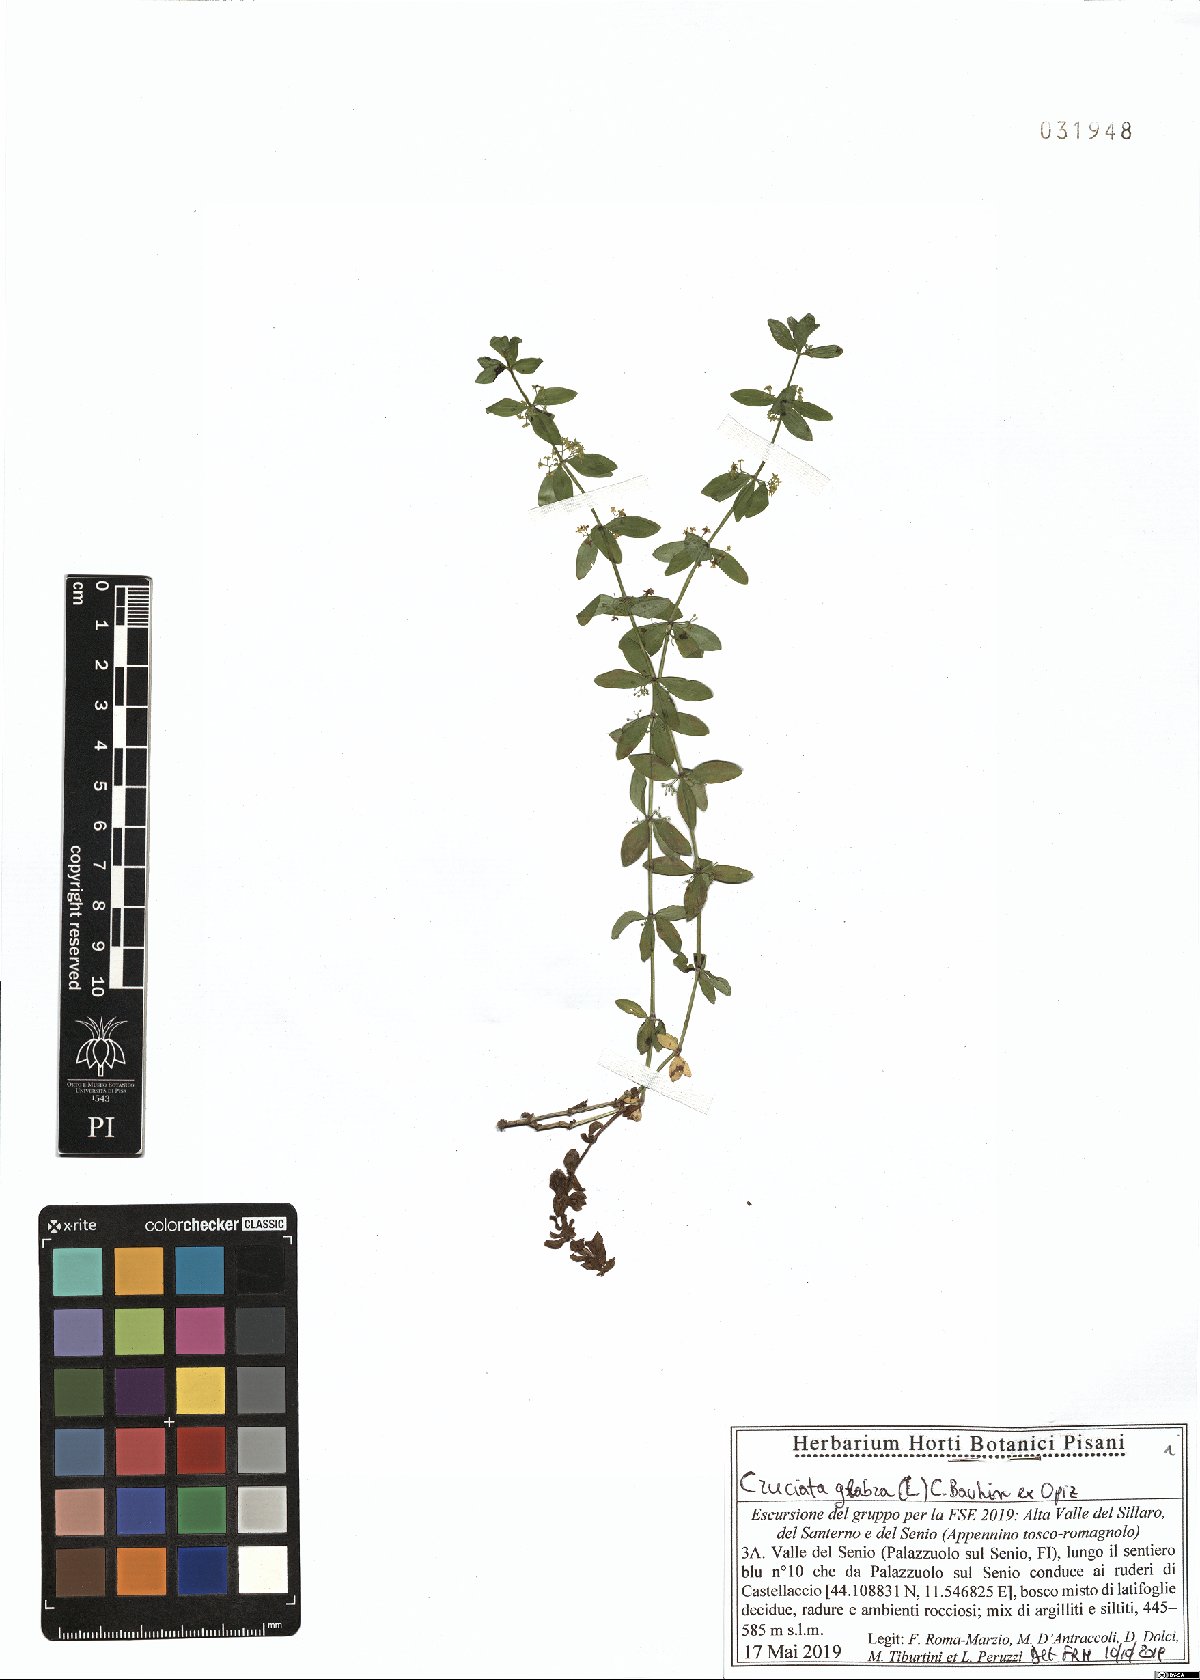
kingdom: Plantae
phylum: Tracheophyta
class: Magnoliopsida
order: Gentianales
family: Rubiaceae
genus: Cruciata
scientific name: Cruciata glabra
